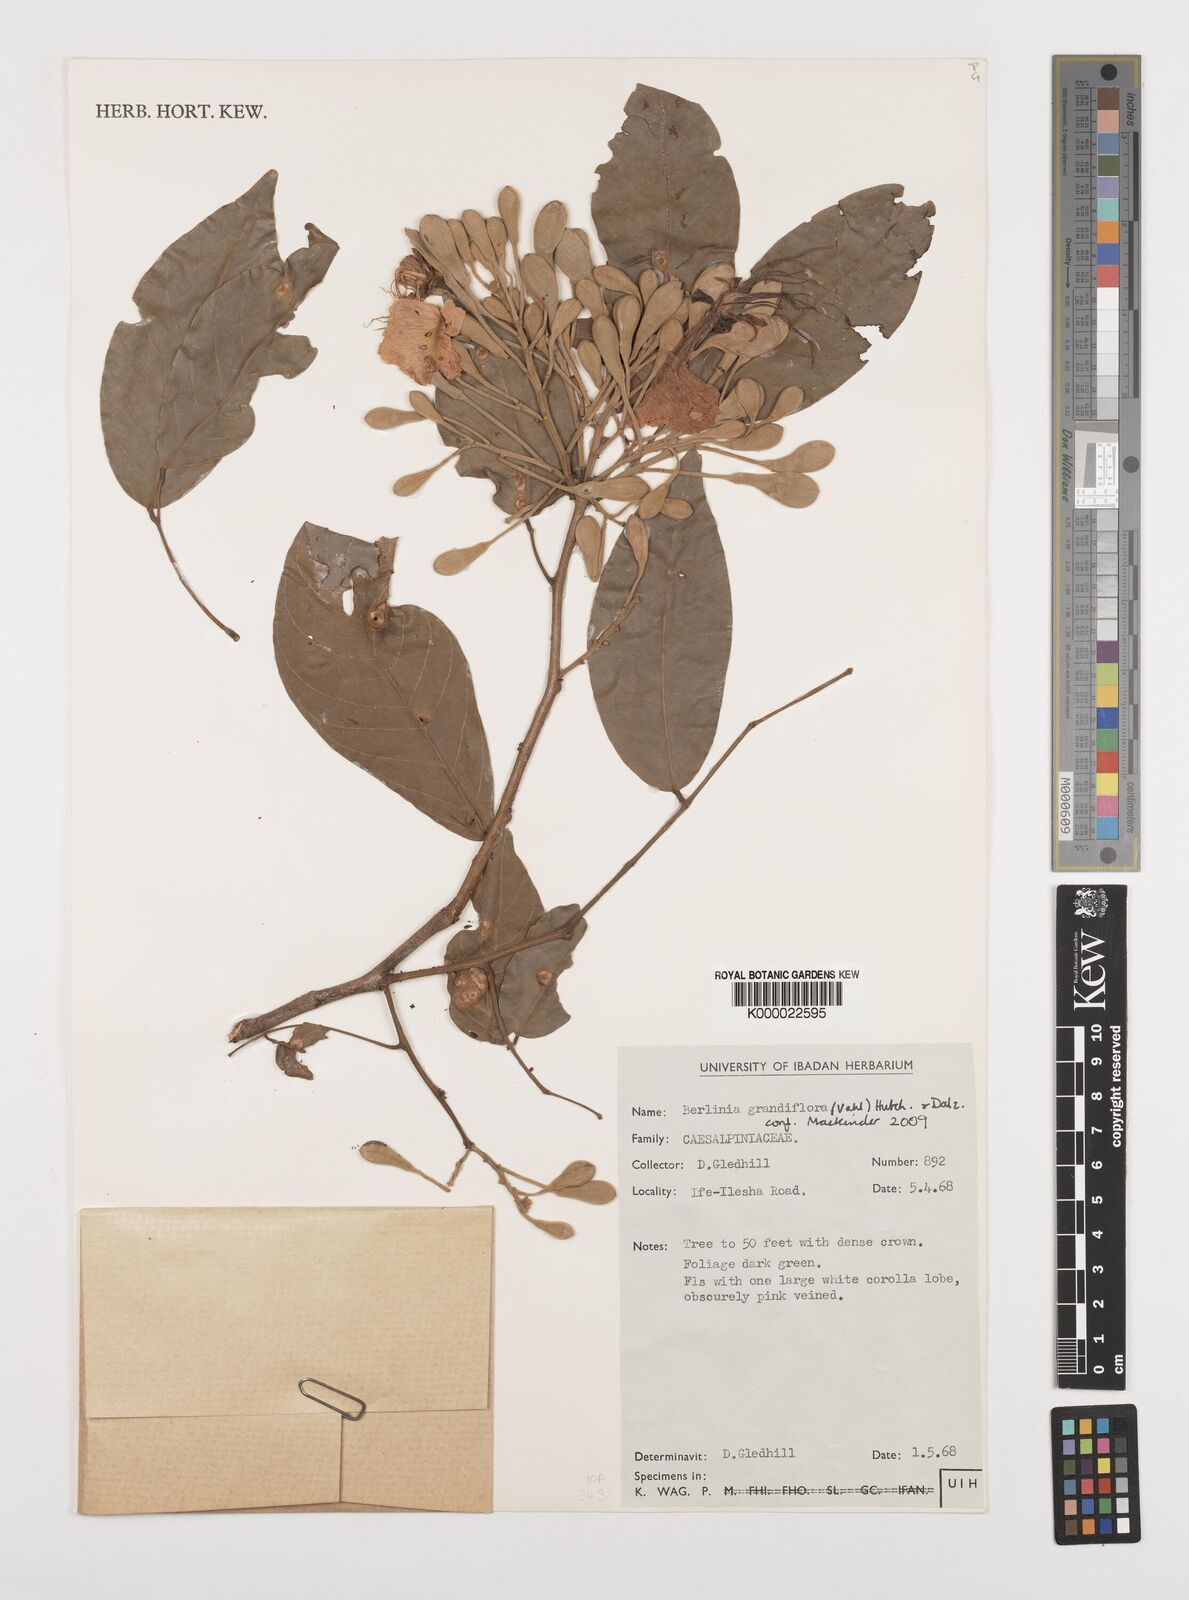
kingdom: Plantae
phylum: Tracheophyta
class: Magnoliopsida
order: Fabales
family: Fabaceae
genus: Berlinia
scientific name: Berlinia grandiflora
